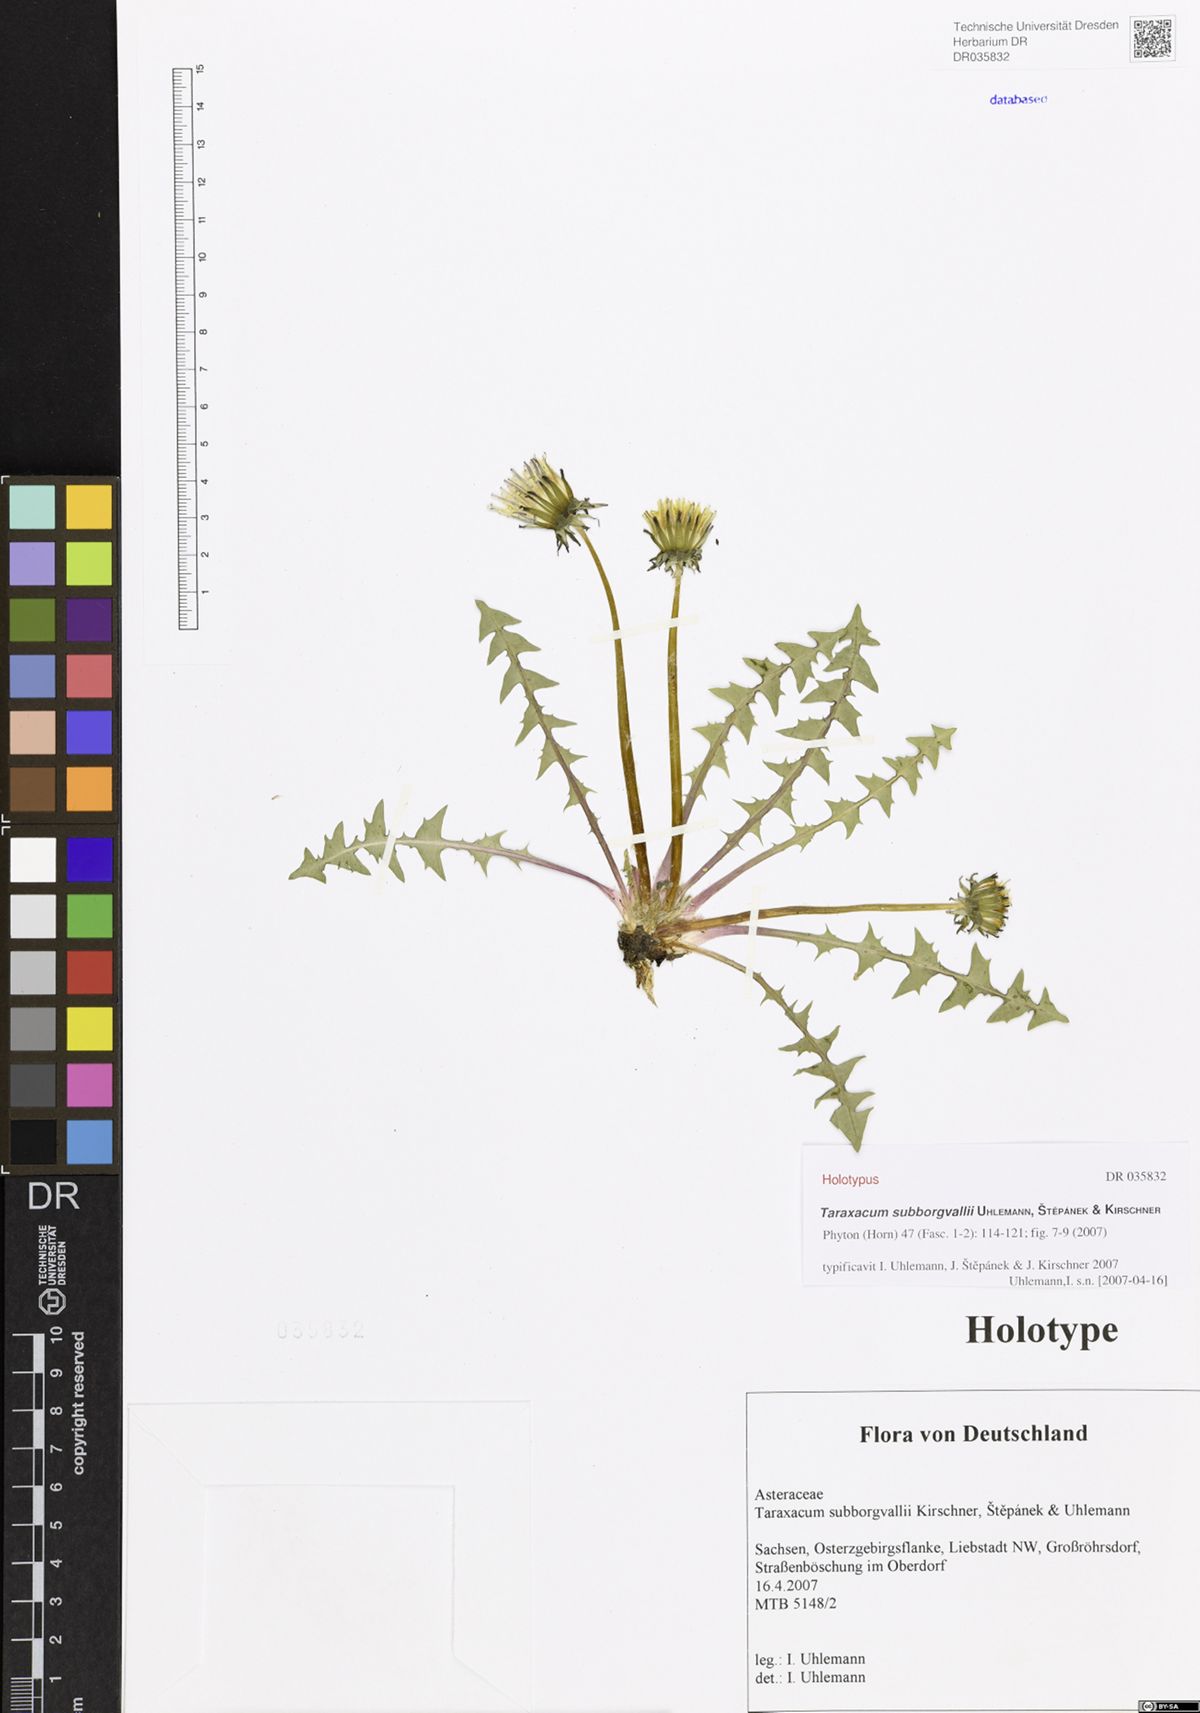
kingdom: Plantae
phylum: Tracheophyta
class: Magnoliopsida
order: Asterales
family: Asteraceae
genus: Taraxacum
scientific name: Taraxacum subborgvallii
